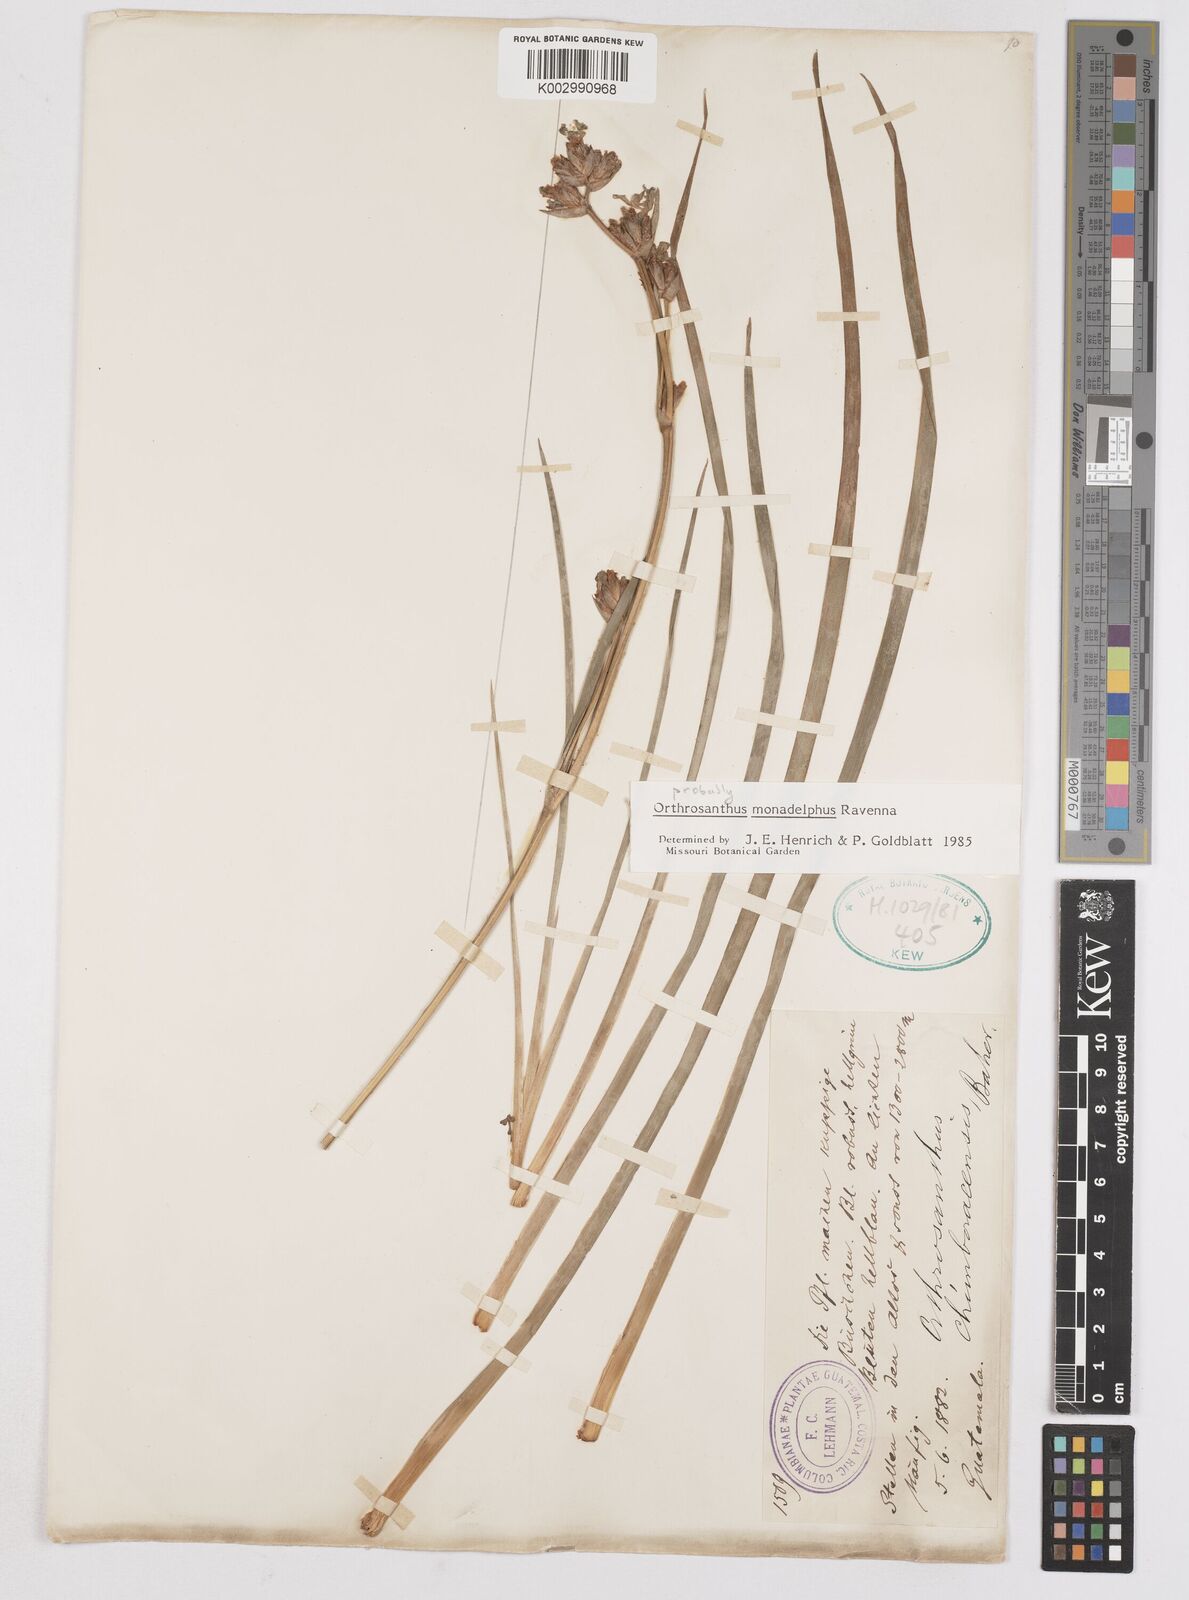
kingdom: Plantae
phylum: Tracheophyta
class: Liliopsida
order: Asparagales
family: Iridaceae
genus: Orthrosanthus
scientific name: Orthrosanthus monadelphus
